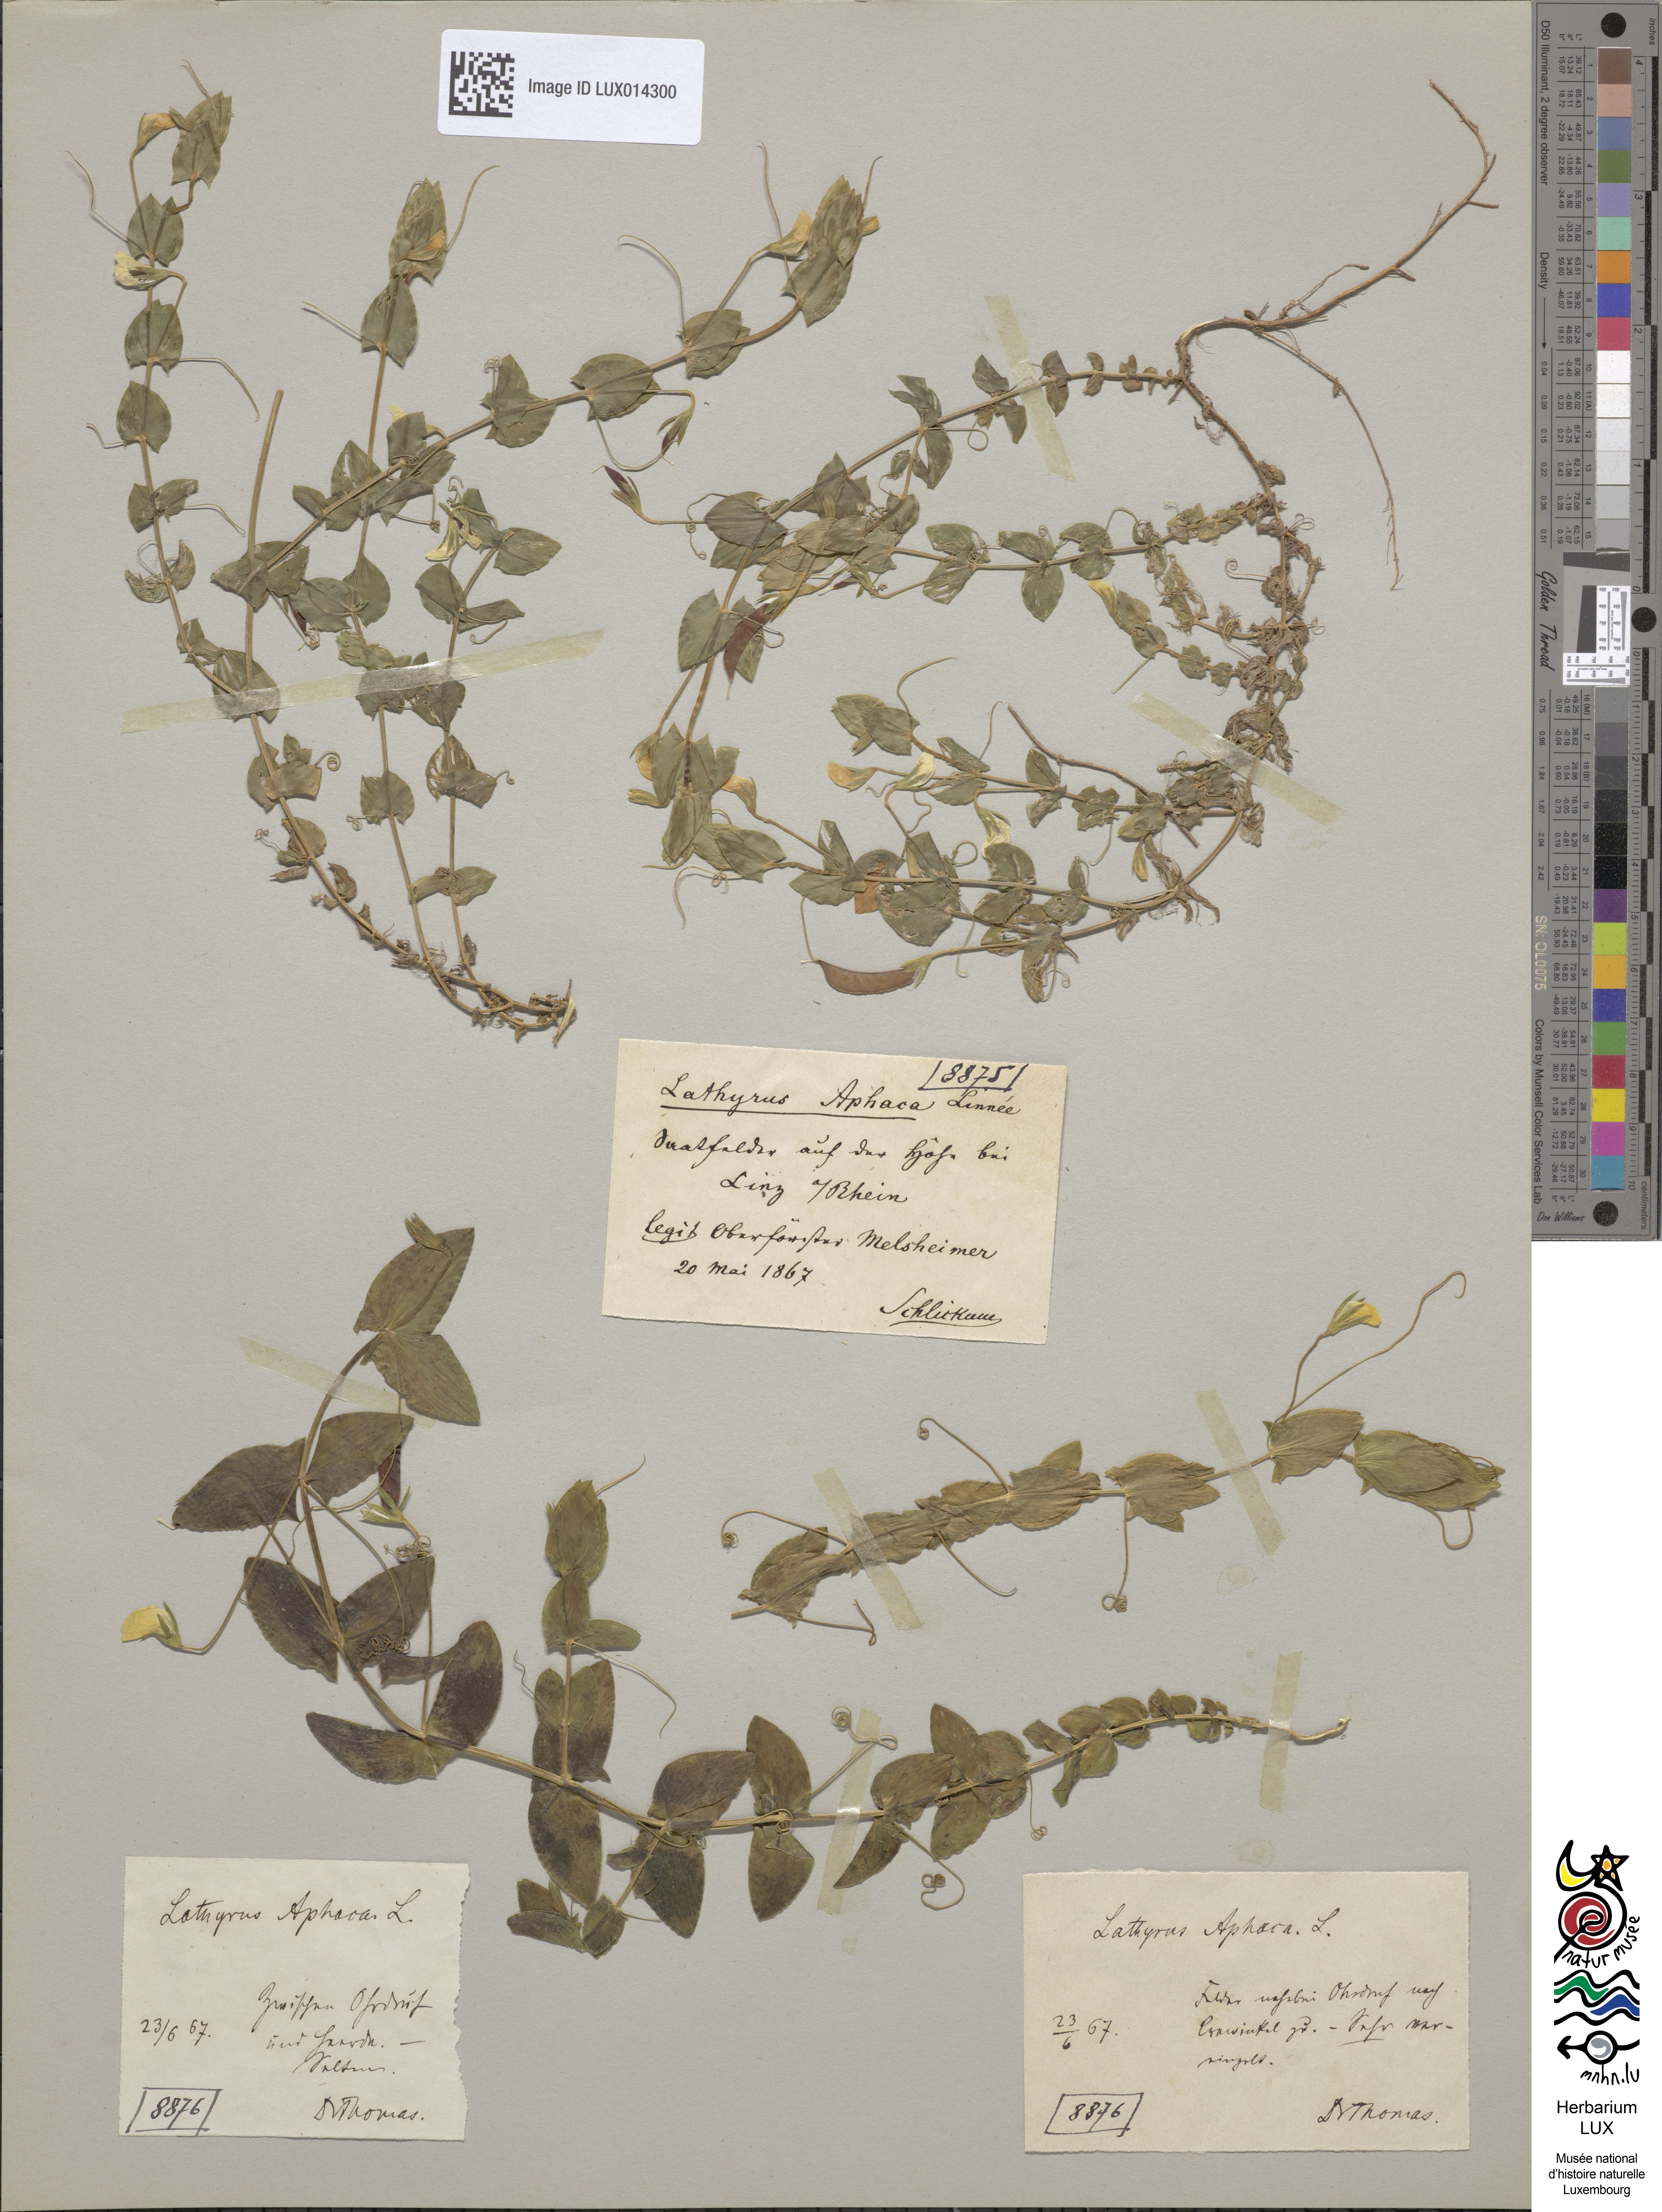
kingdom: Plantae
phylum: Tracheophyta
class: Magnoliopsida
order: Fabales
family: Fabaceae
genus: Lathyrus
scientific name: Lathyrus aphaca
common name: Yellow vetchling
